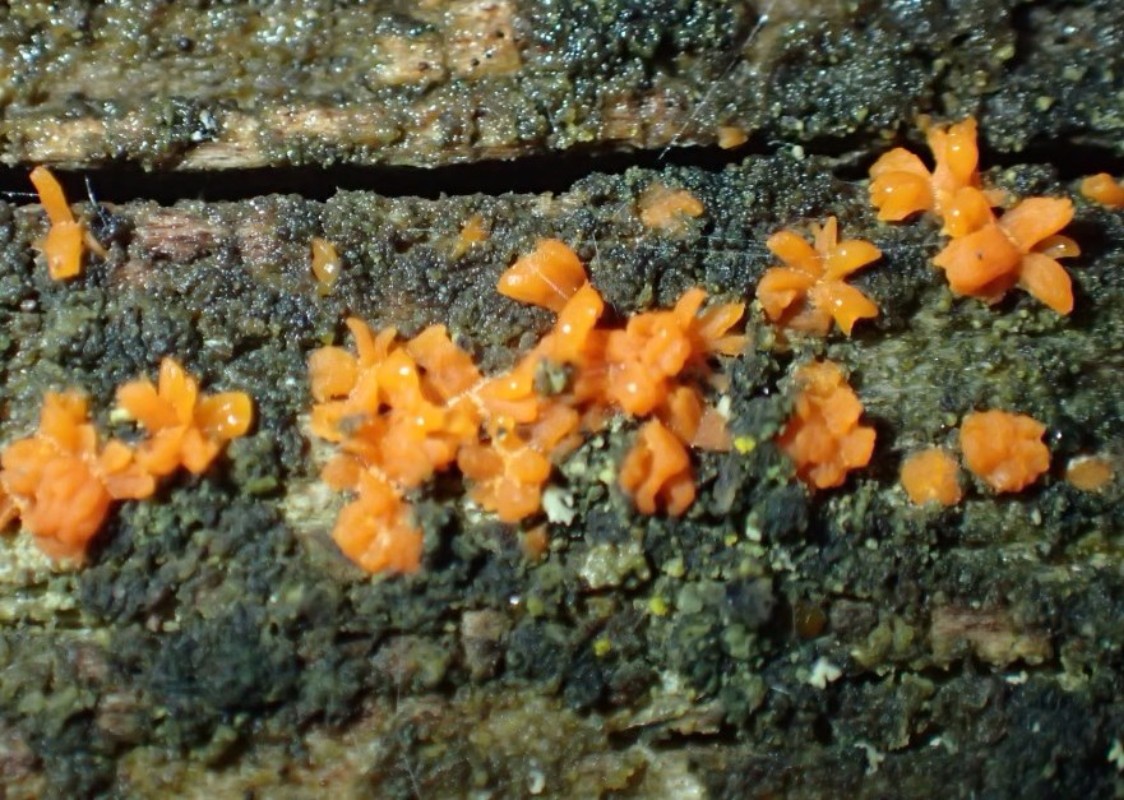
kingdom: Protozoa
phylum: Mycetozoa
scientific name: Mycetozoa
